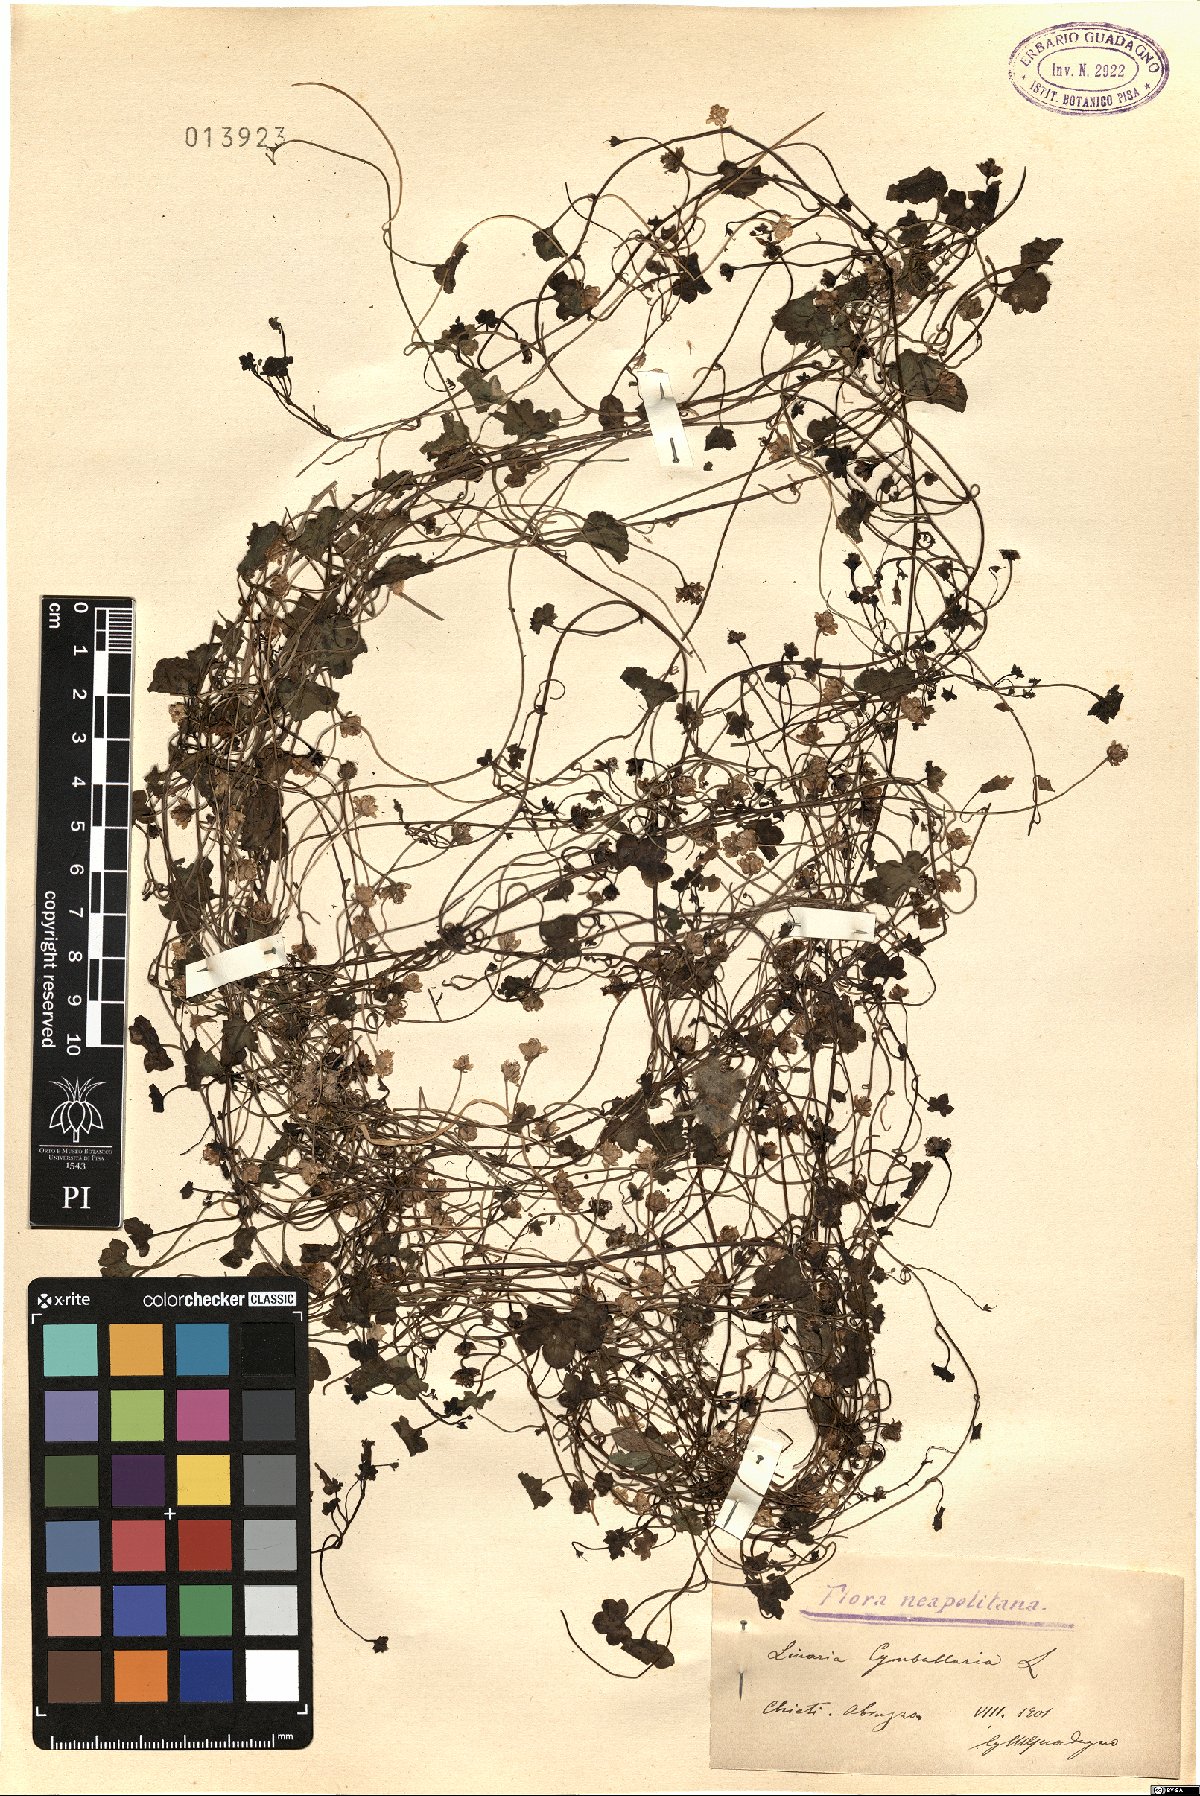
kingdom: Plantae
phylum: Tracheophyta
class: Magnoliopsida
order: Lamiales
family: Plantaginaceae
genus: Cymbalaria
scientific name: Cymbalaria muralis
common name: Ivy-leaved toadflax
